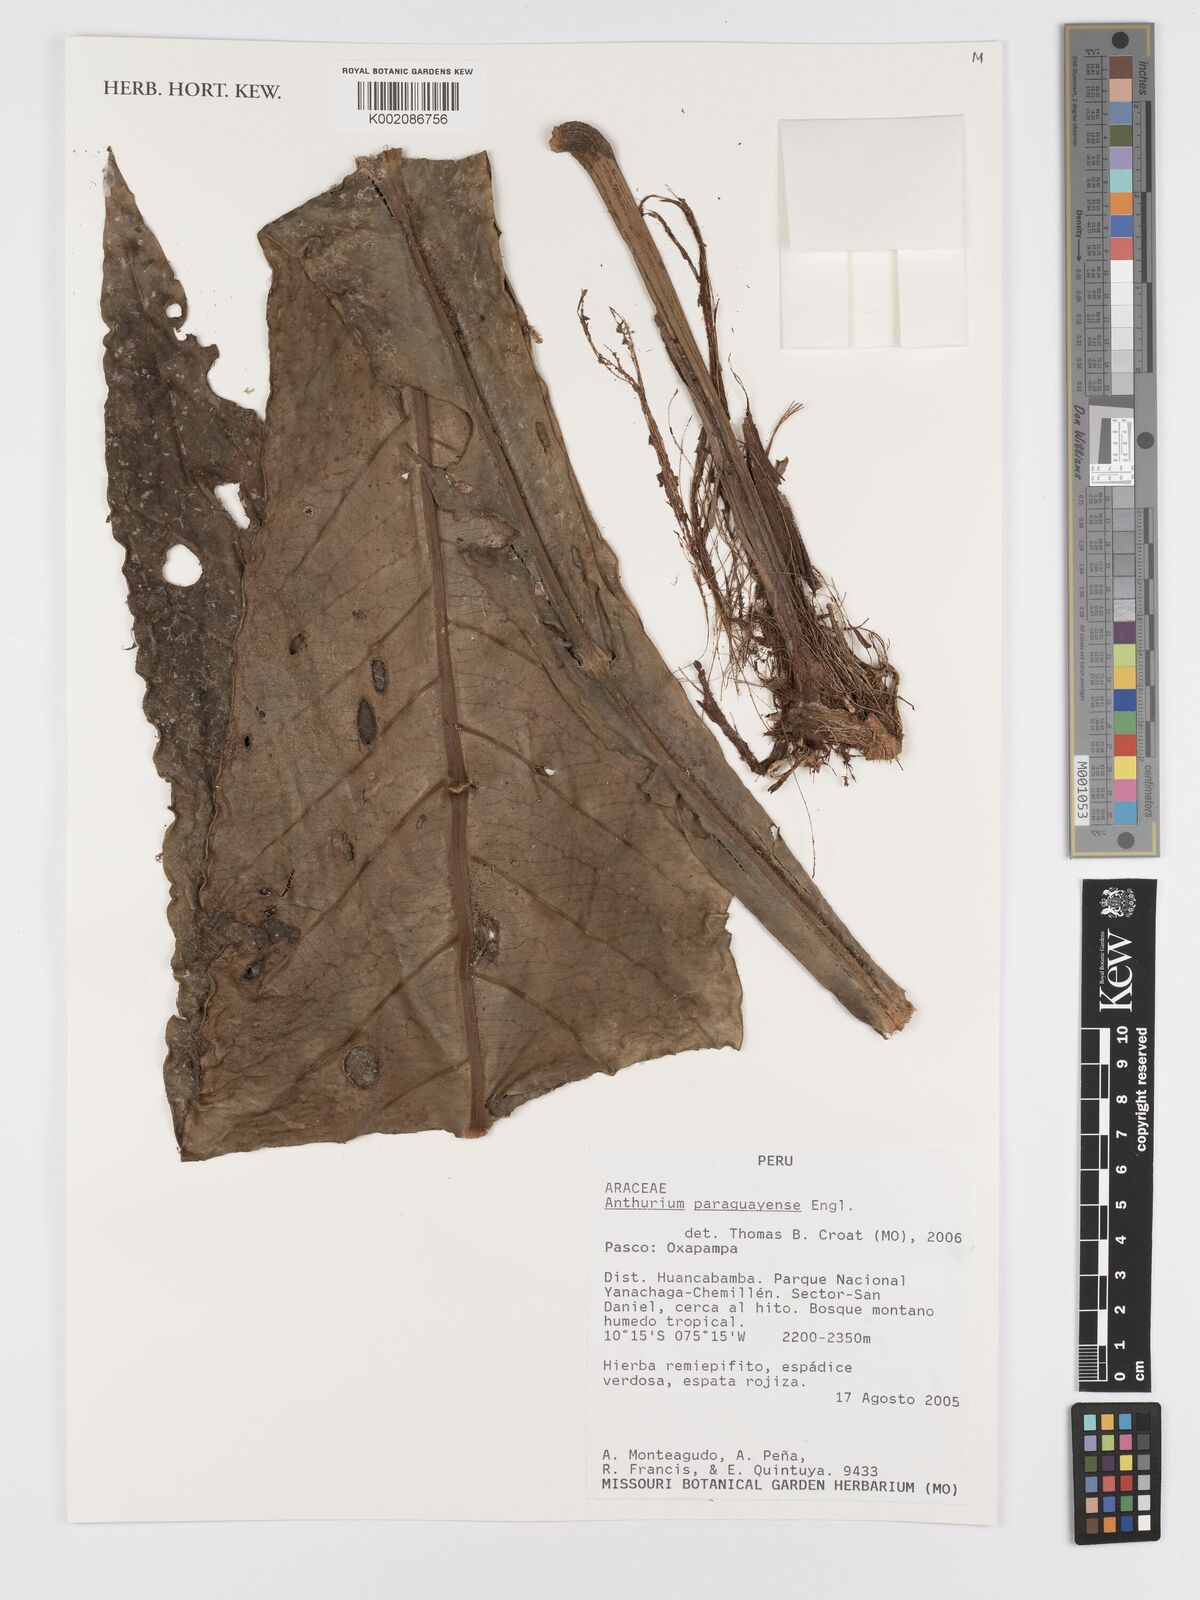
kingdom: Plantae
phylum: Tracheophyta
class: Liliopsida
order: Alismatales
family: Araceae
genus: Anthurium
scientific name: Anthurium paraguayense
